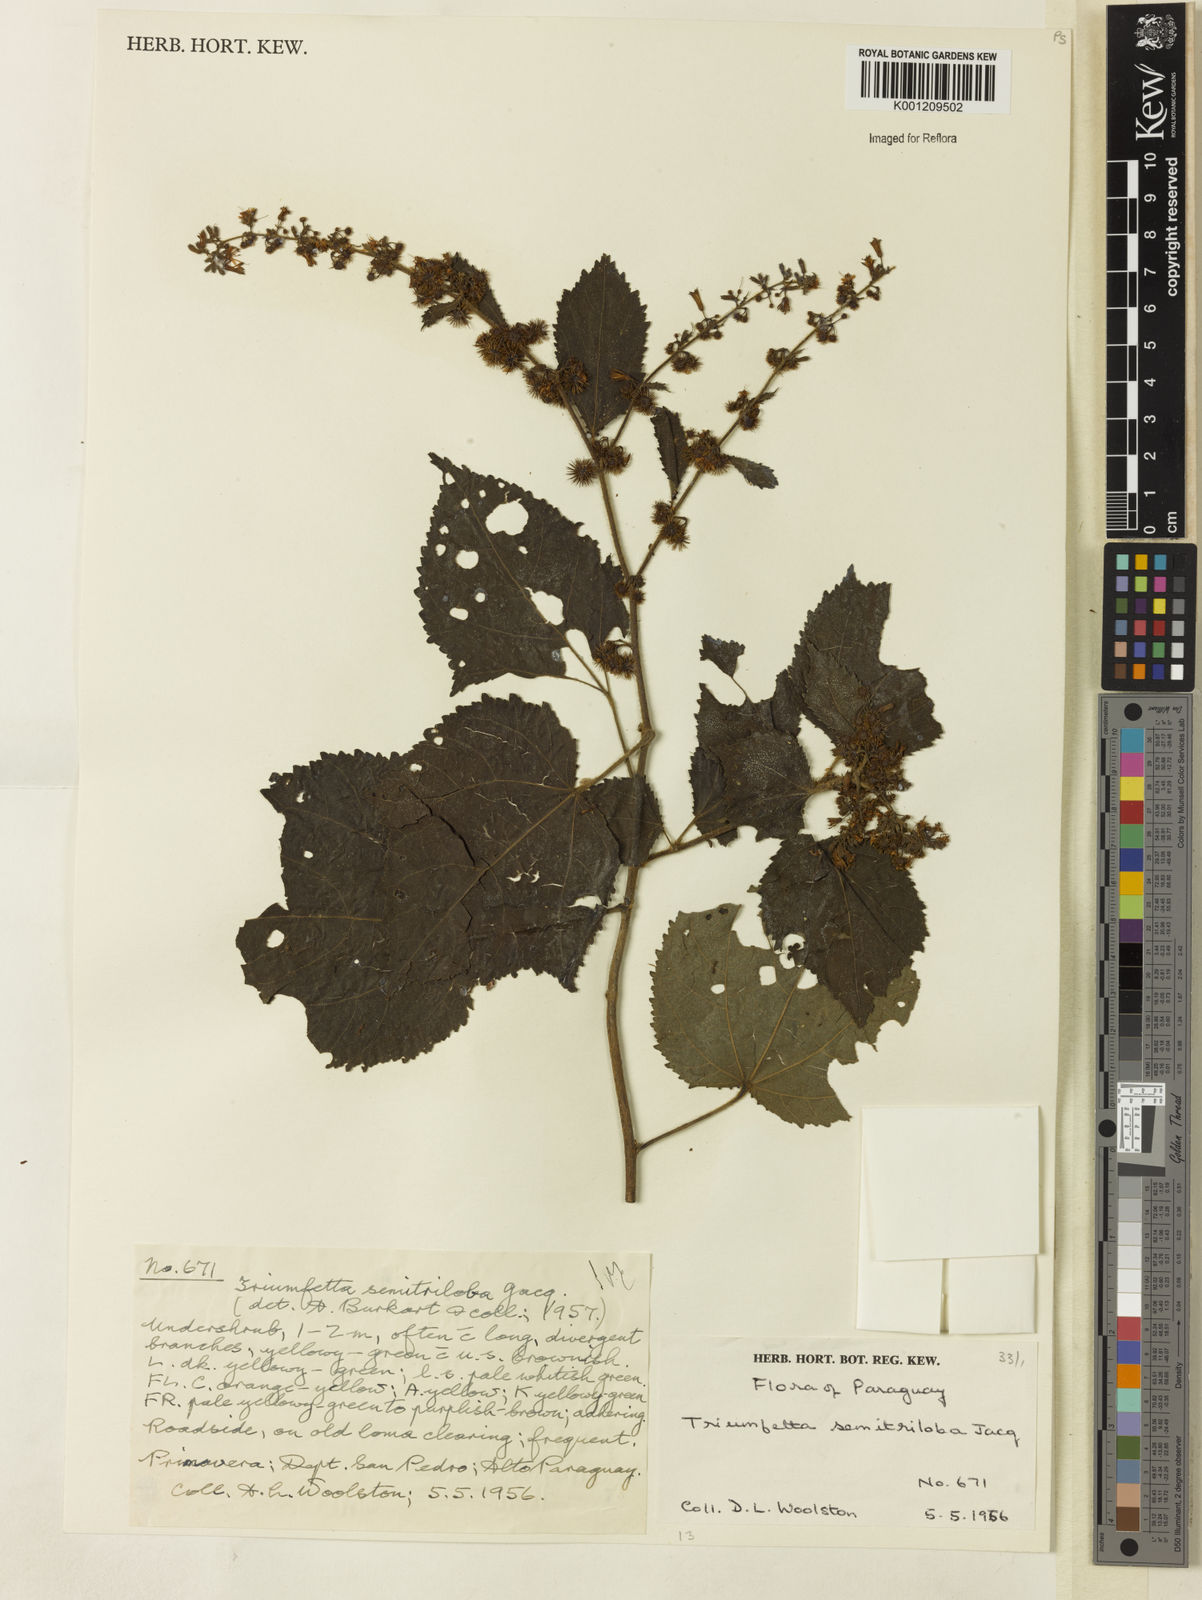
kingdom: Plantae
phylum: Tracheophyta
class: Magnoliopsida
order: Malvales
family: Malvaceae
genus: Triumfetta
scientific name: Triumfetta semitriloba
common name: Sacramento burbark
